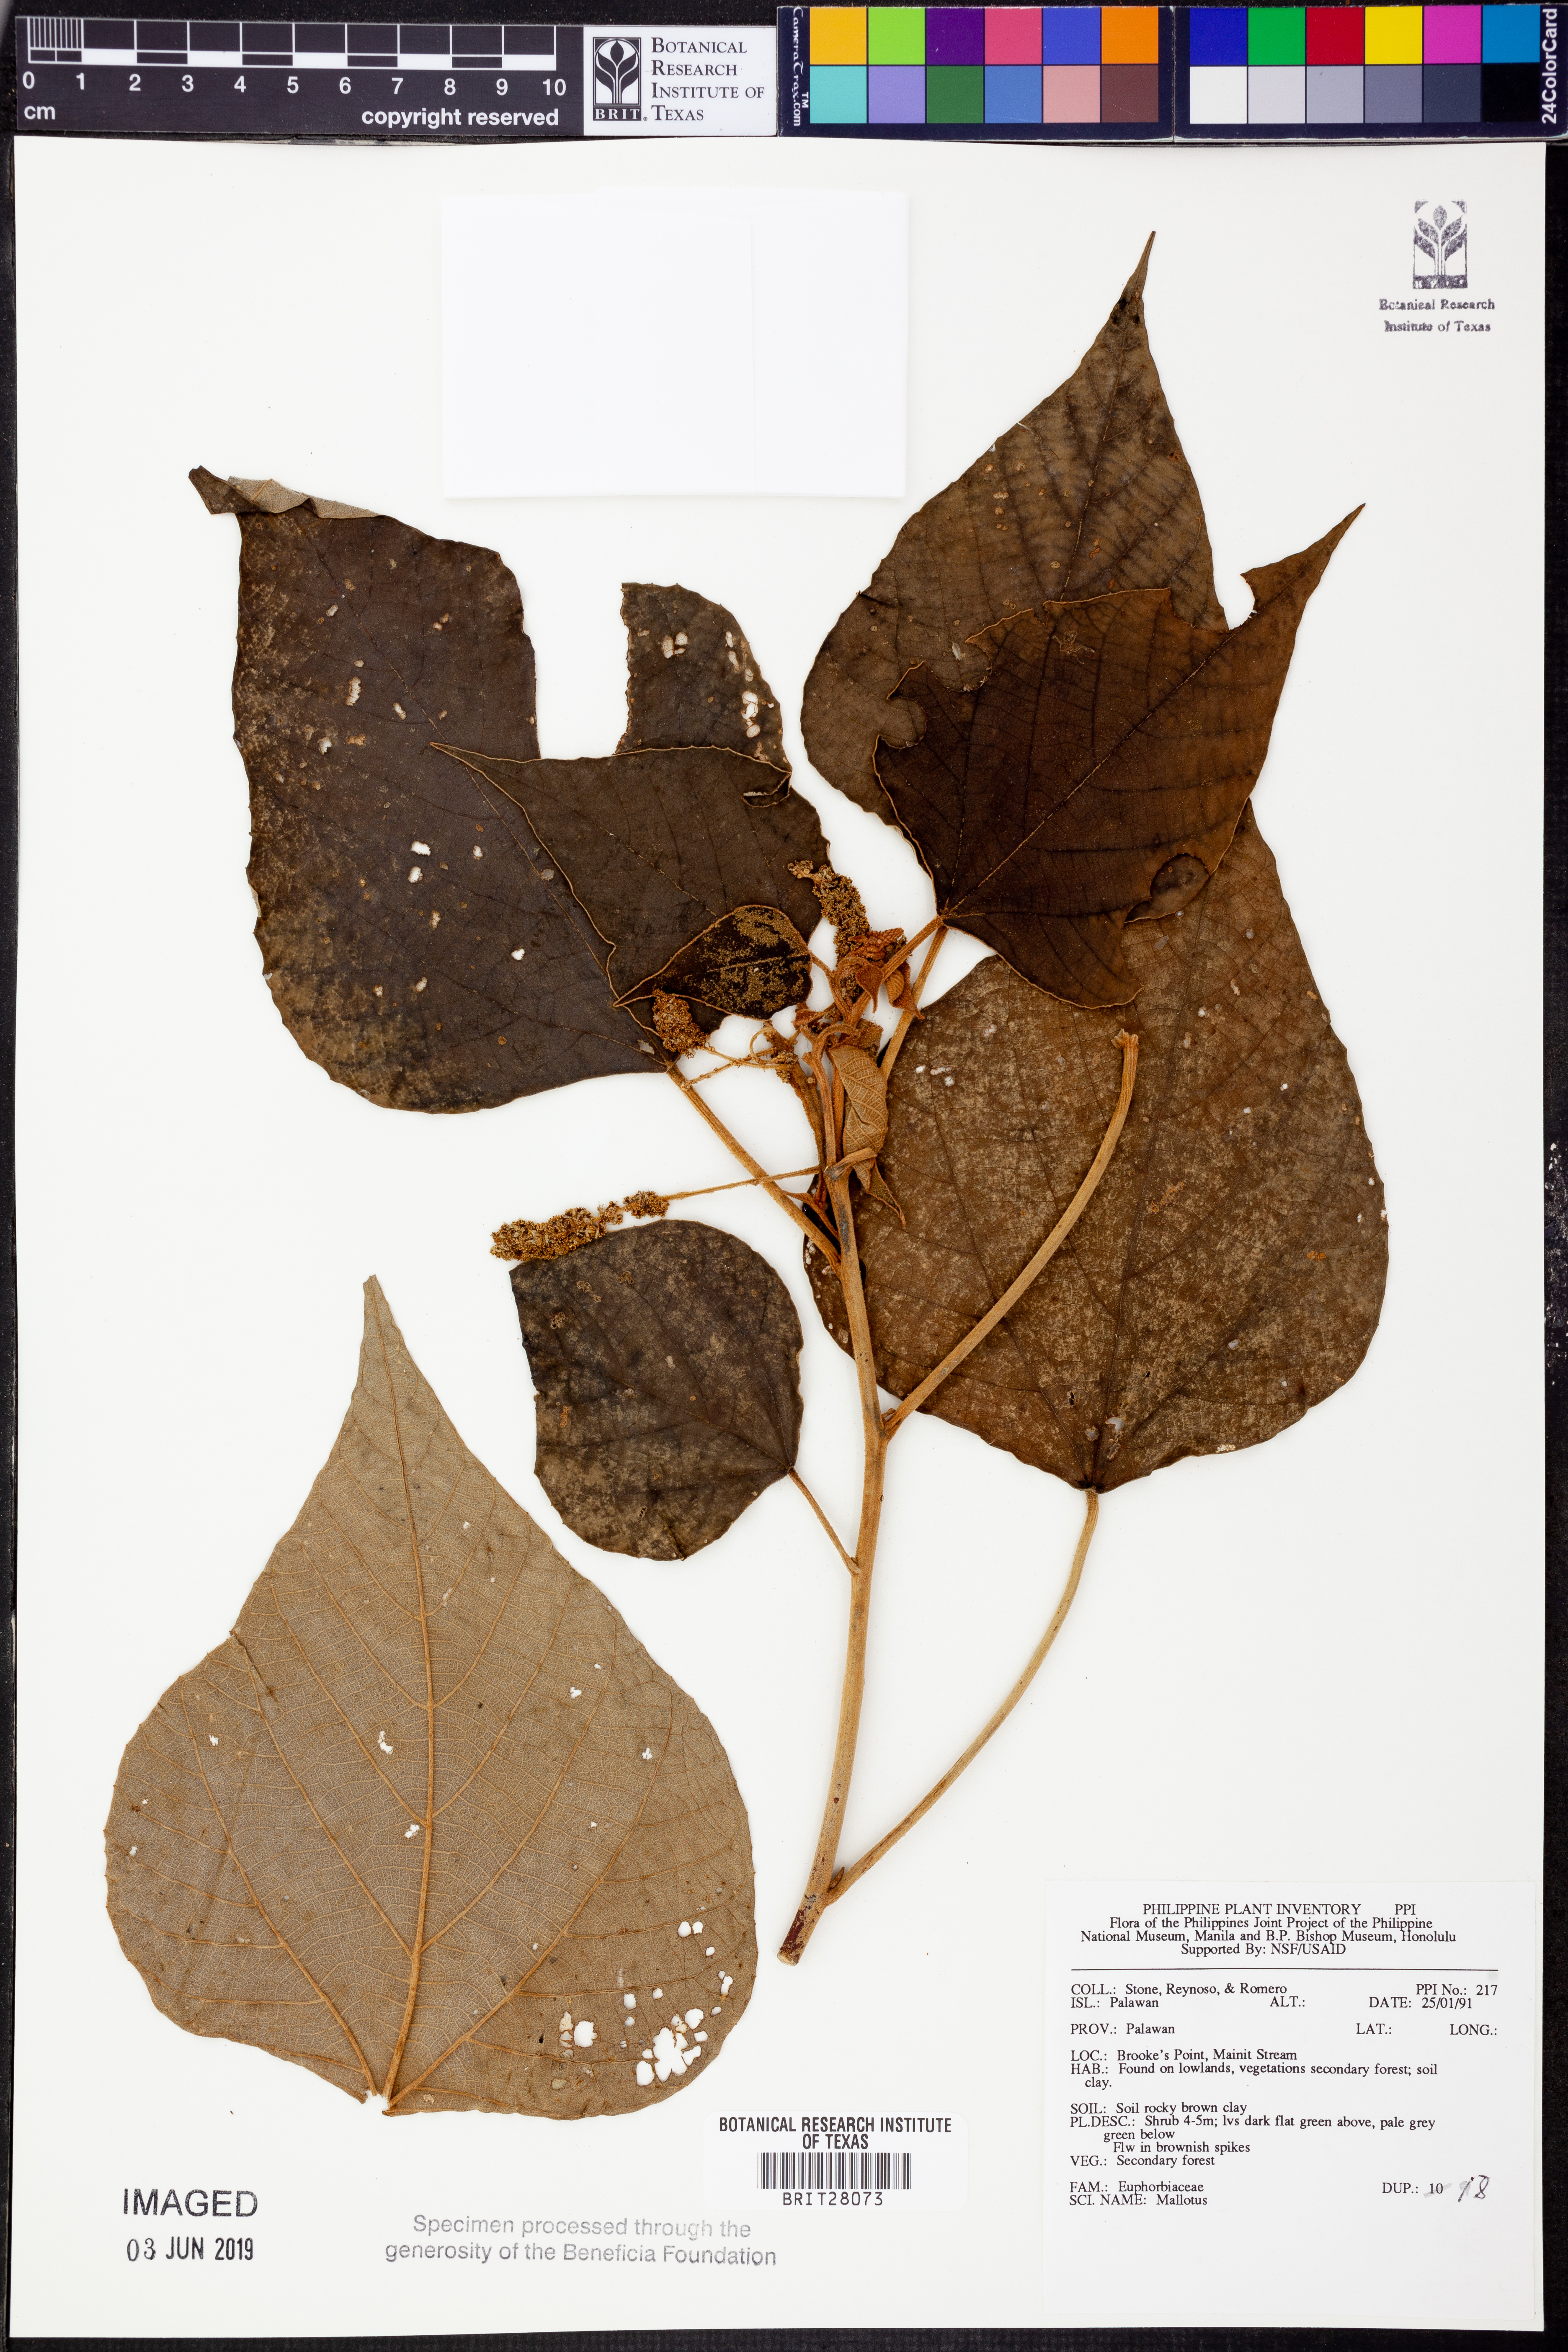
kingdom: Plantae
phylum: Tracheophyta
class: Magnoliopsida
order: Malpighiales
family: Euphorbiaceae
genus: Mallotus
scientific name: Mallotus
